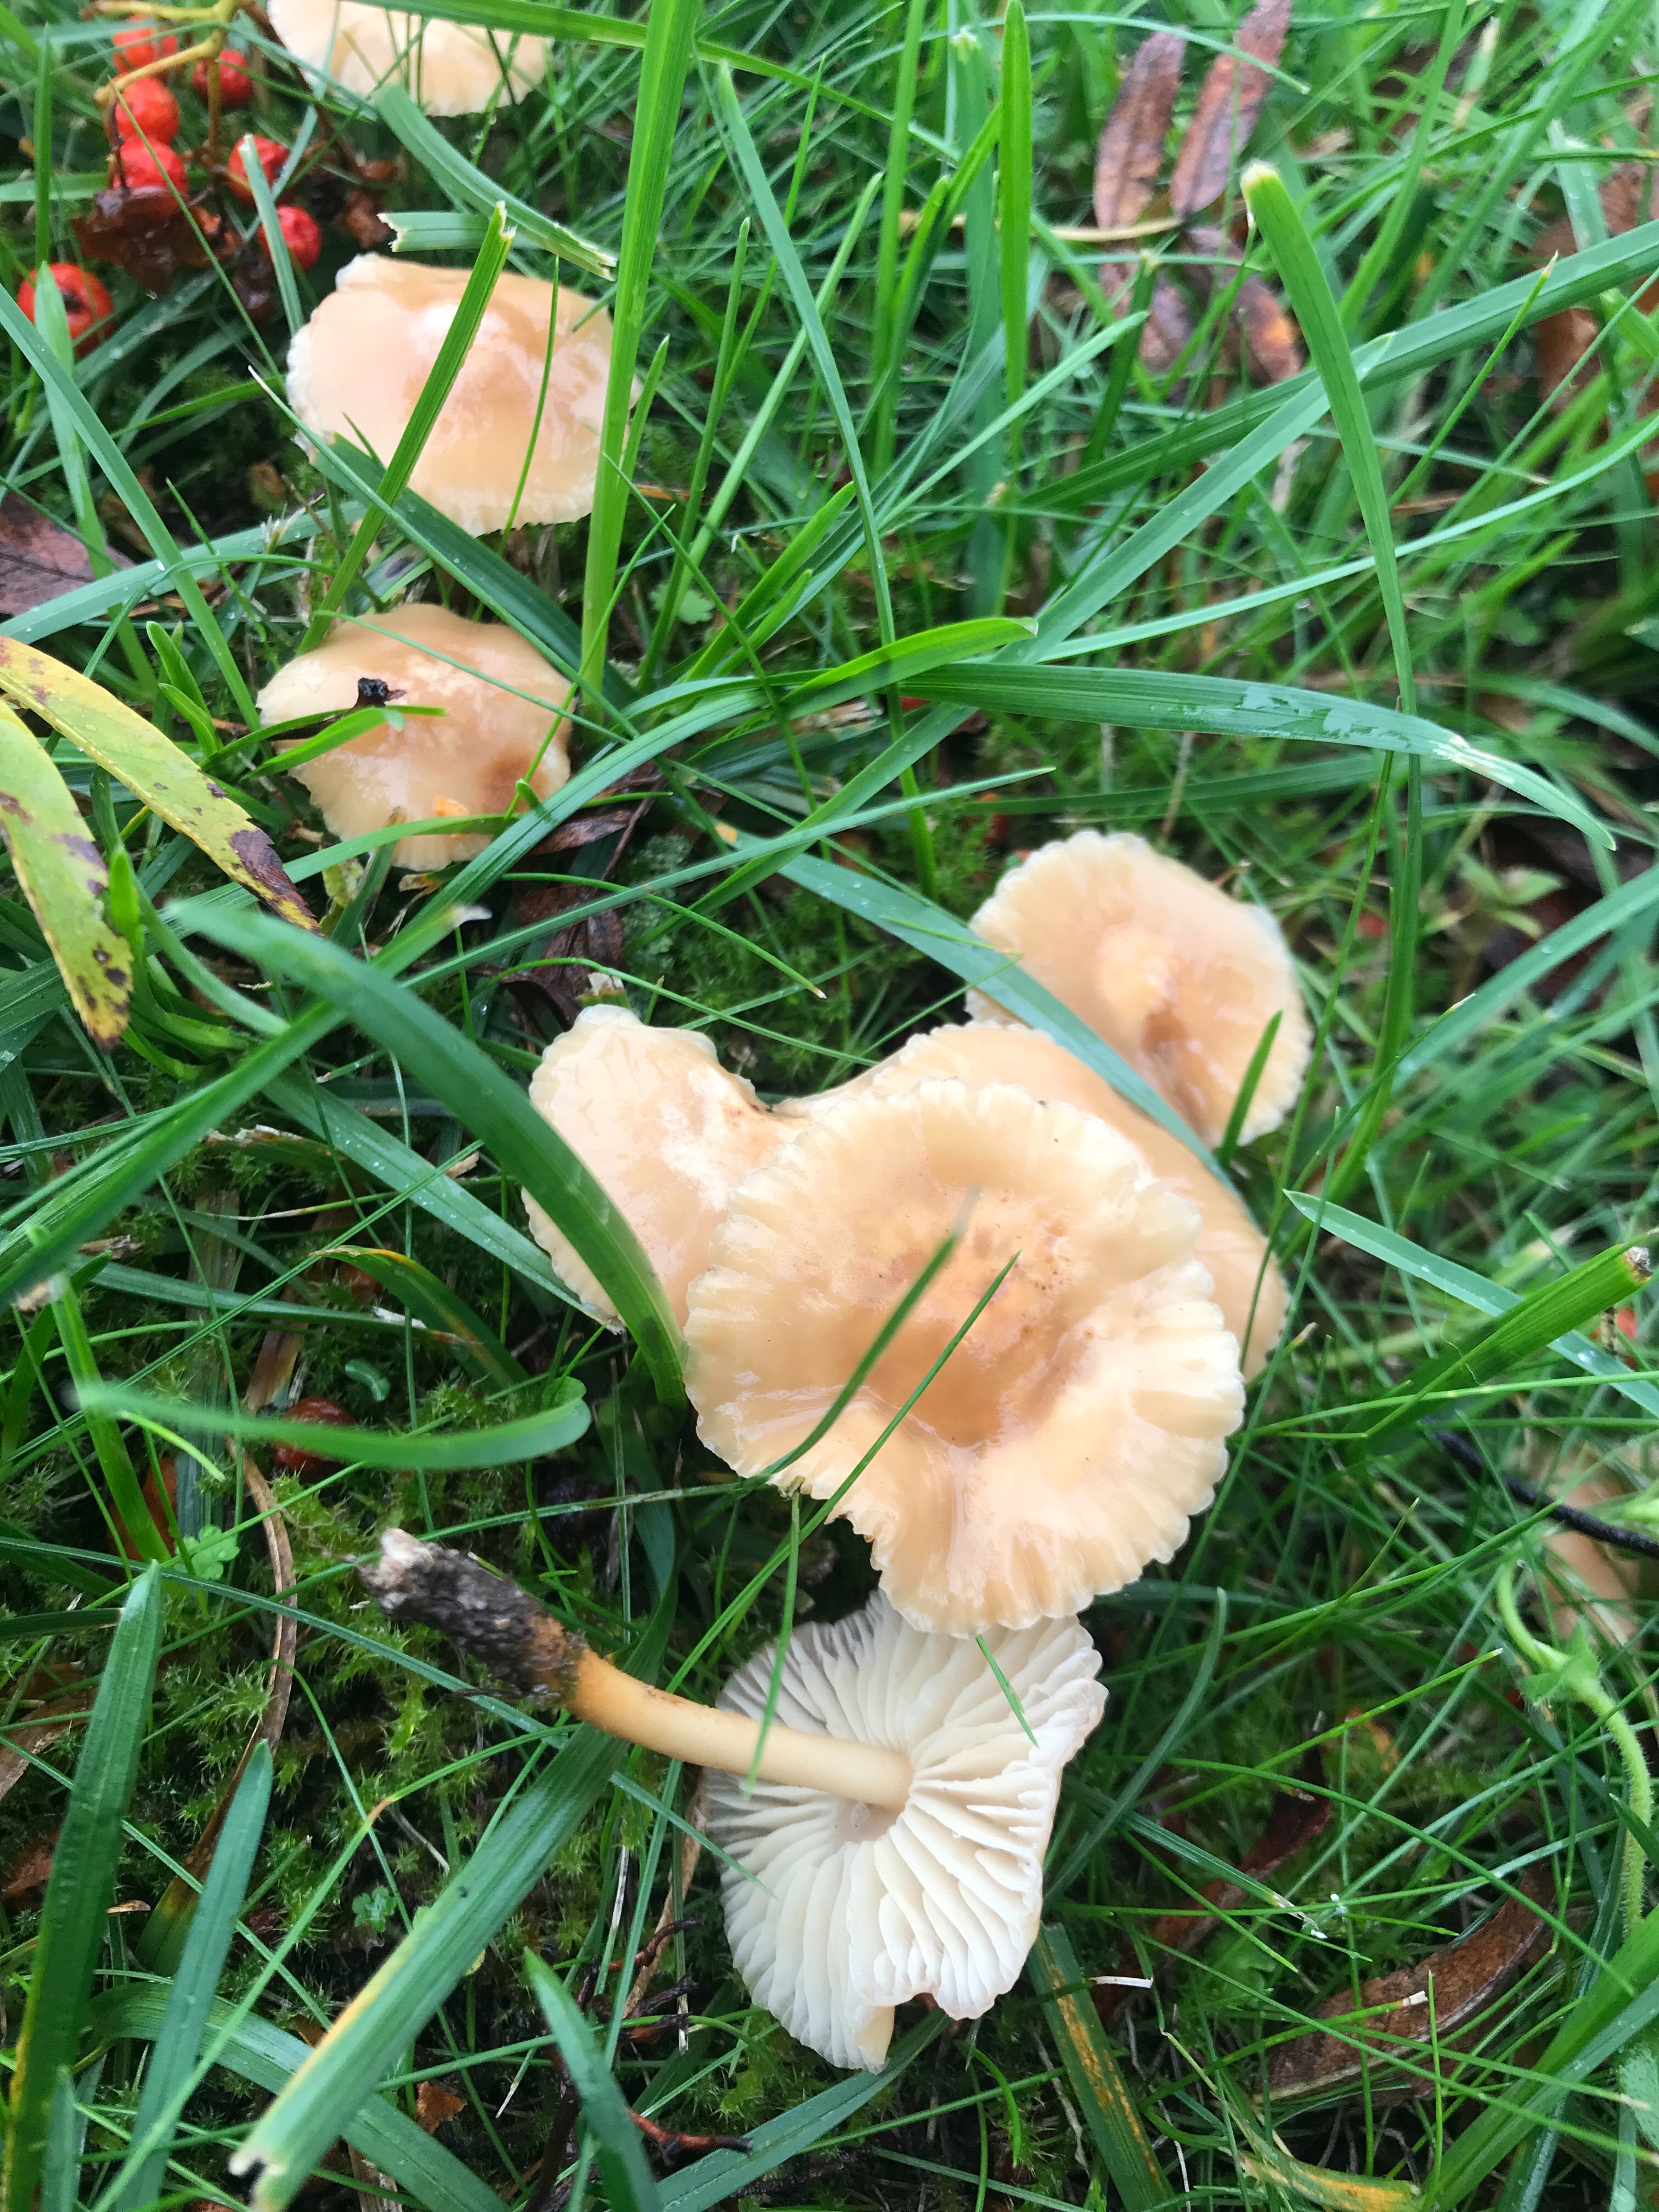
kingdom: Fungi
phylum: Basidiomycota
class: Agaricomycetes
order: Agaricales
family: Marasmiaceae
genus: Marasmius
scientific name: Marasmius oreades
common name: elledans-bruskhat
